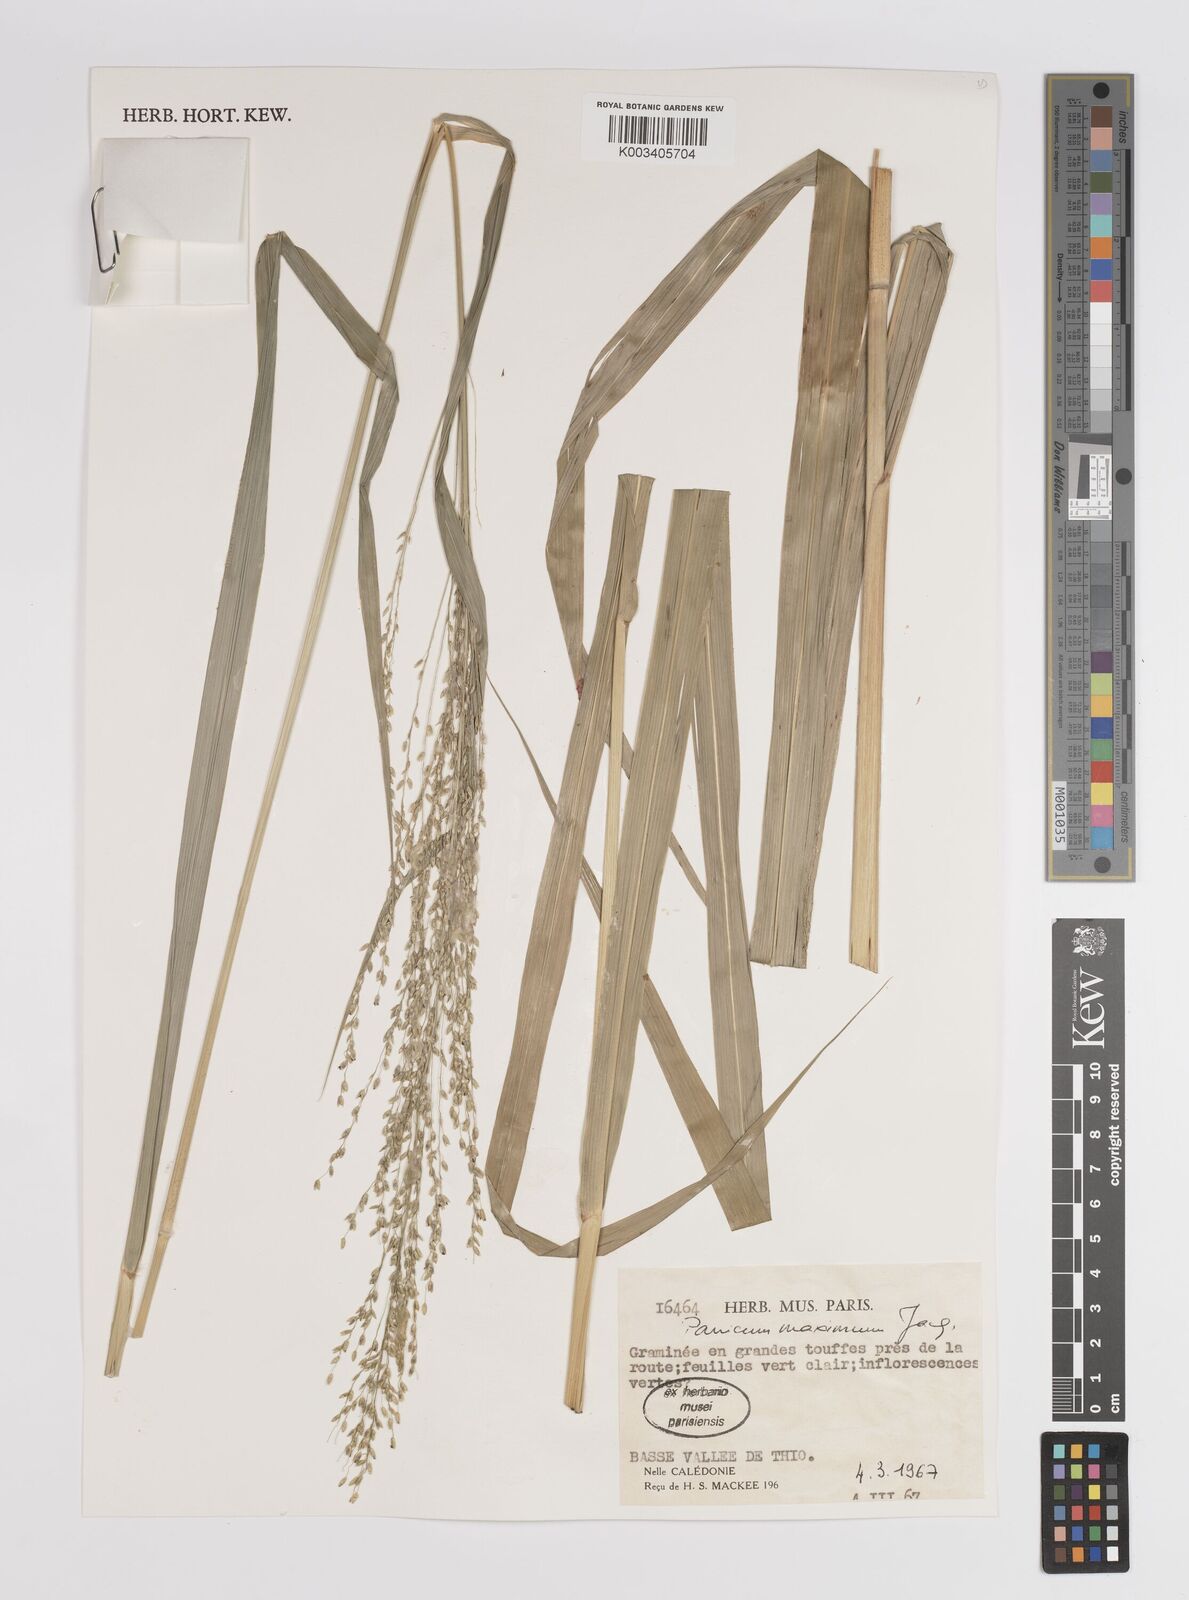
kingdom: Plantae
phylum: Tracheophyta
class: Liliopsida
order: Poales
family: Poaceae
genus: Megathyrsus
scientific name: Megathyrsus maximus
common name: Guineagrass
